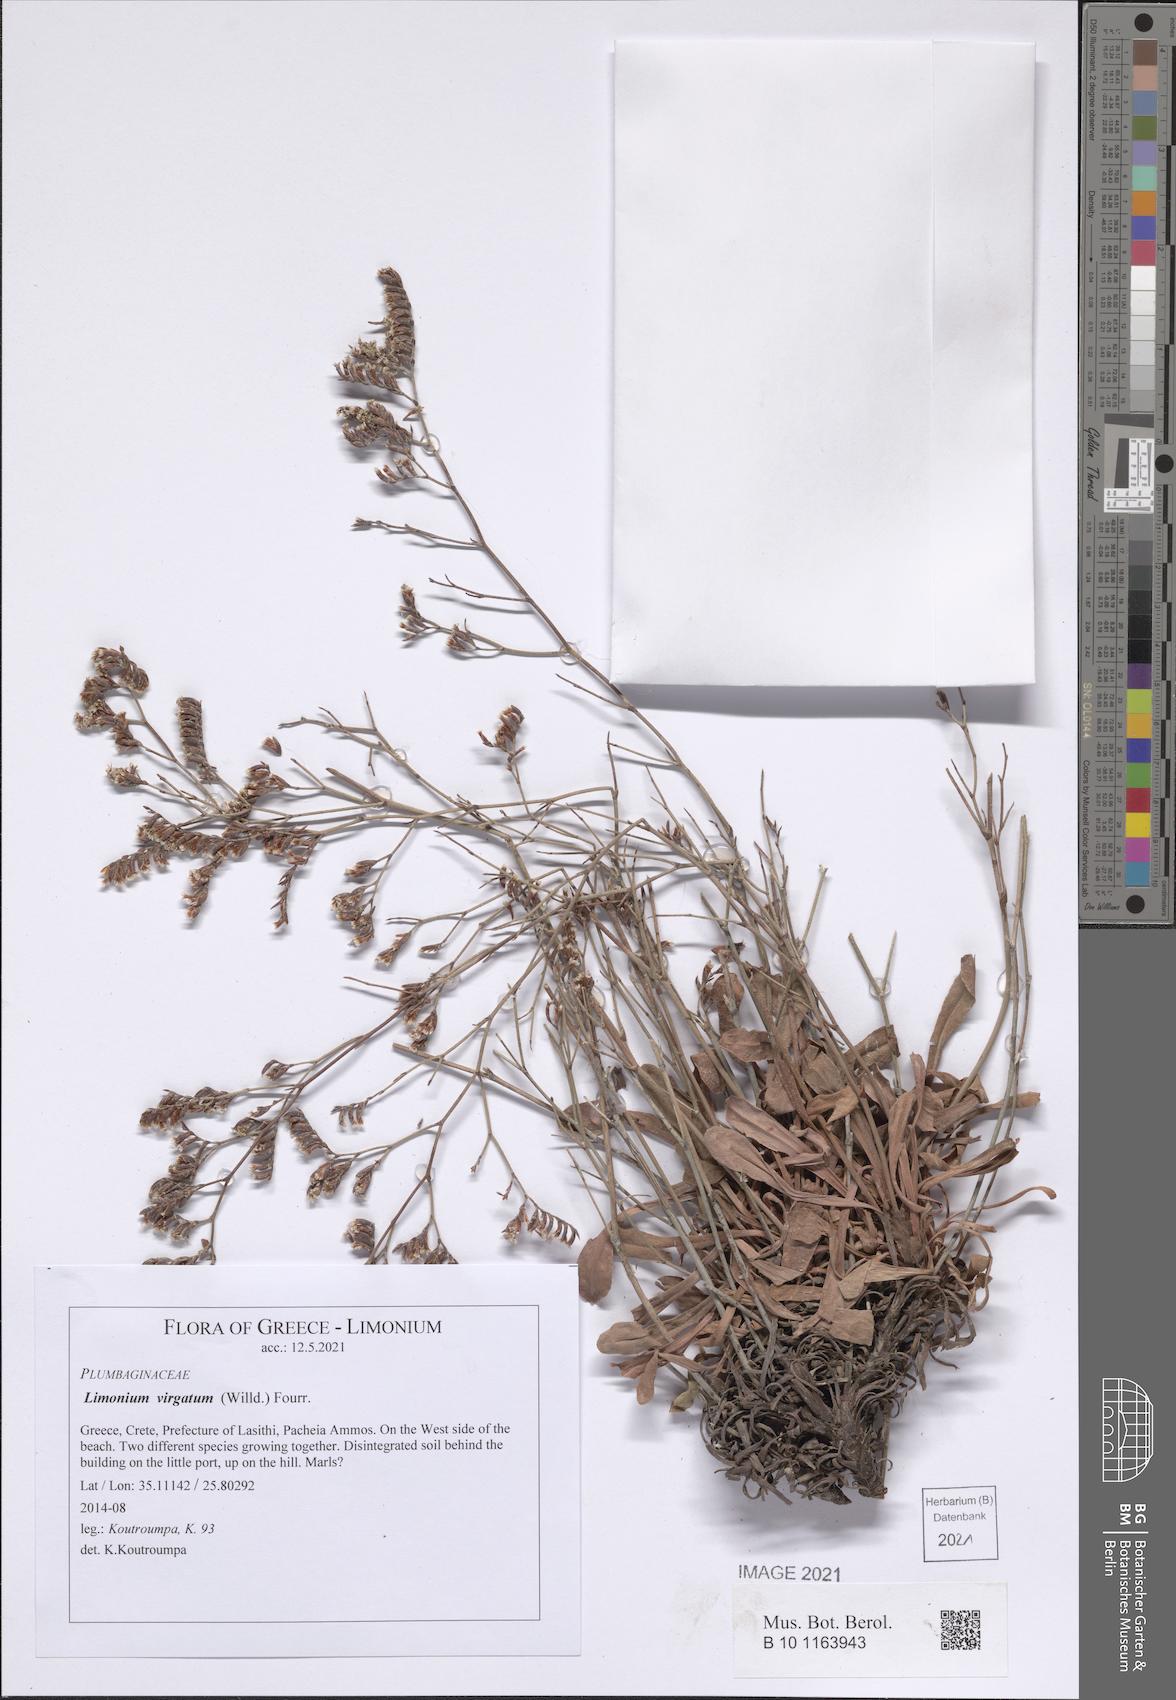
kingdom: Plantae
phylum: Tracheophyta
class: Magnoliopsida
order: Caryophyllales
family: Plumbaginaceae
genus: Limonium
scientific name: Limonium virgatum
